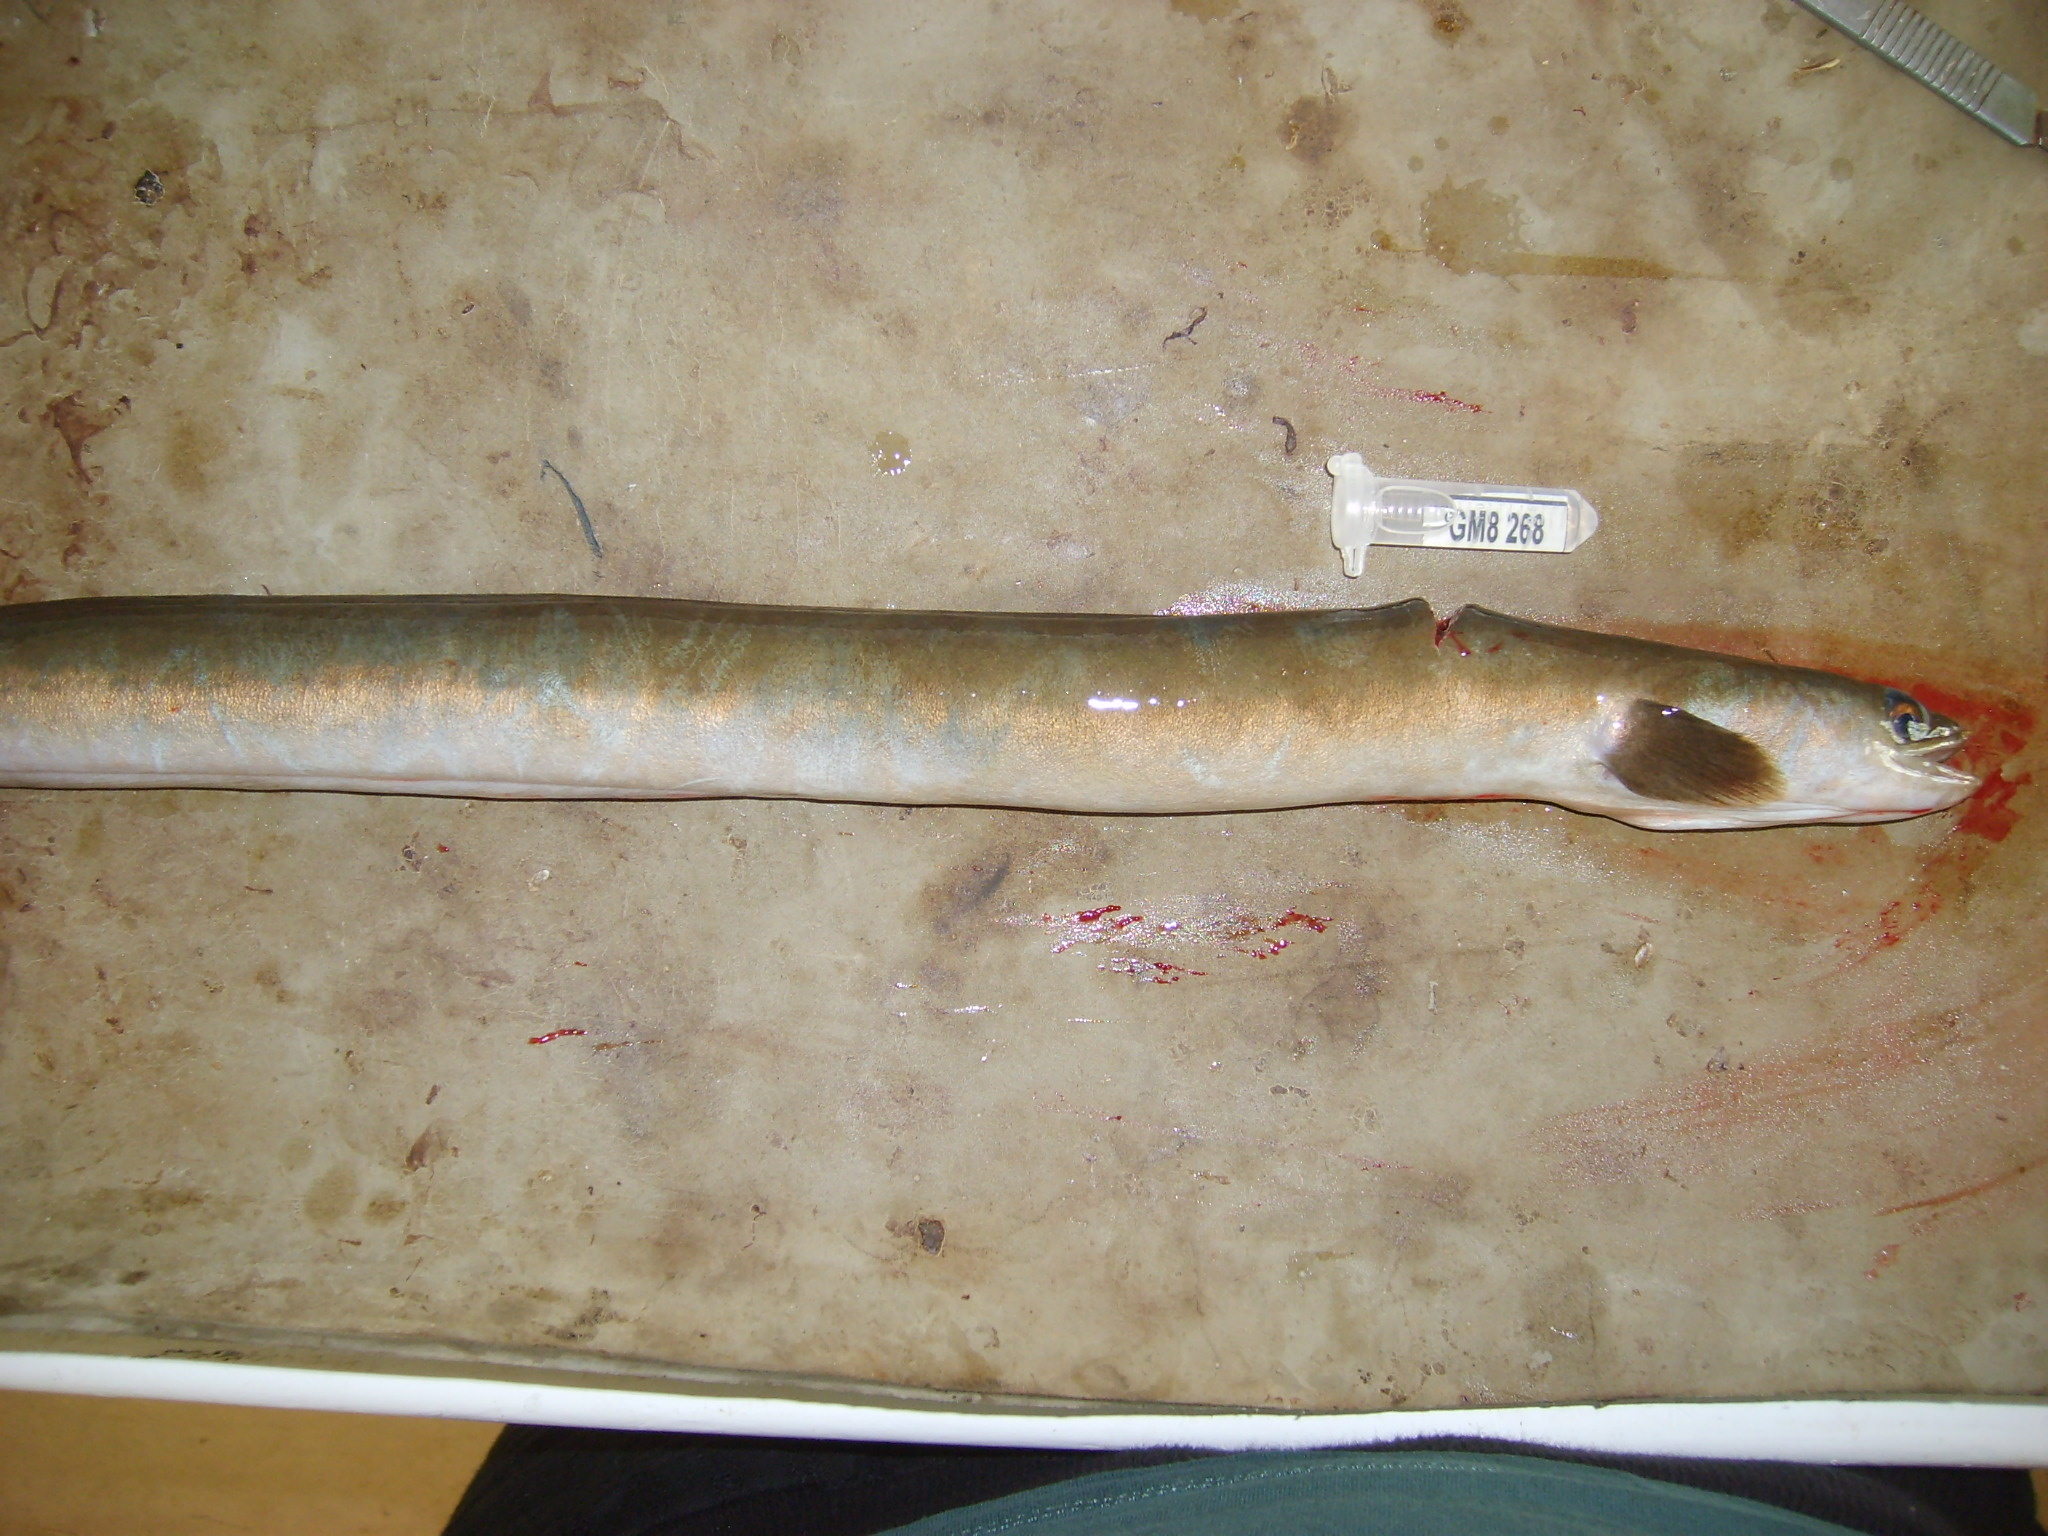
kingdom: Animalia
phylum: Chordata
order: Anguilliformes
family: Anguillidae
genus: Anguilla
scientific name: Anguilla mossambica
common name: African longfin eel
